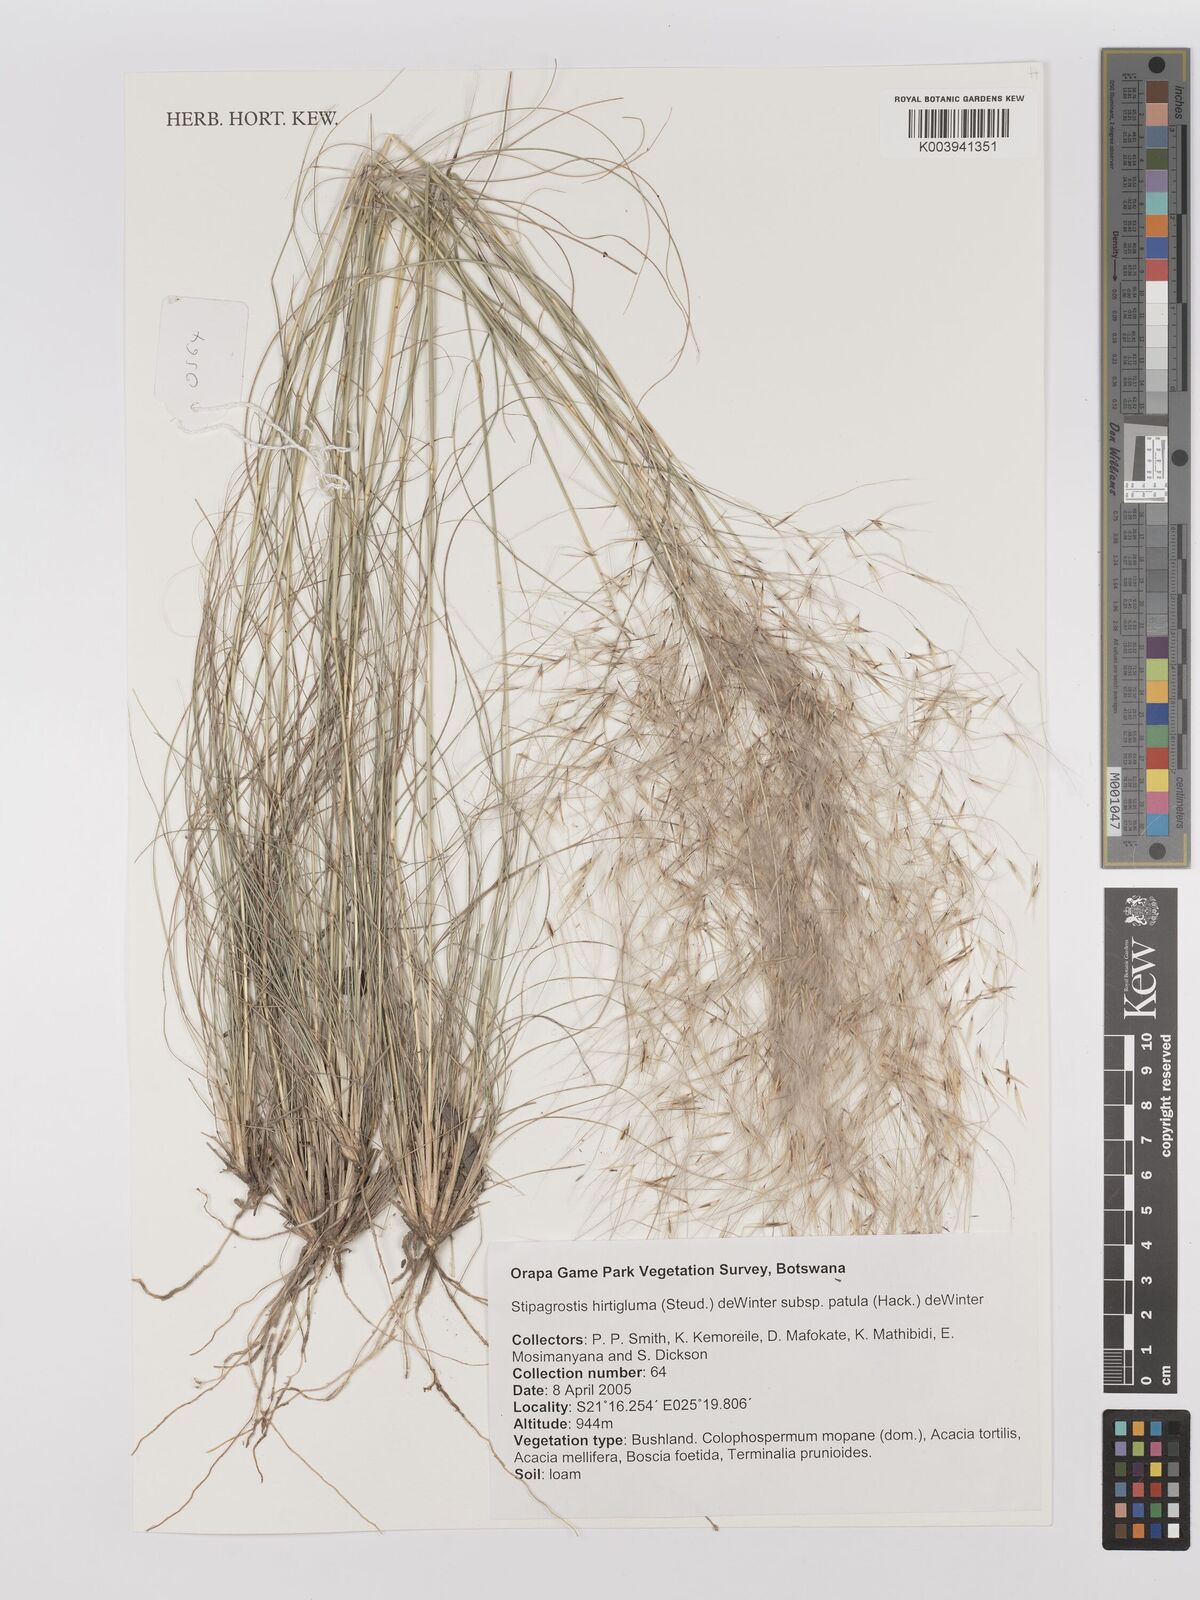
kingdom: Plantae
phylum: Tracheophyta
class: Liliopsida
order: Poales
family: Poaceae
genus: Stipagrostis
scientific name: Stipagrostis hirtigluma
